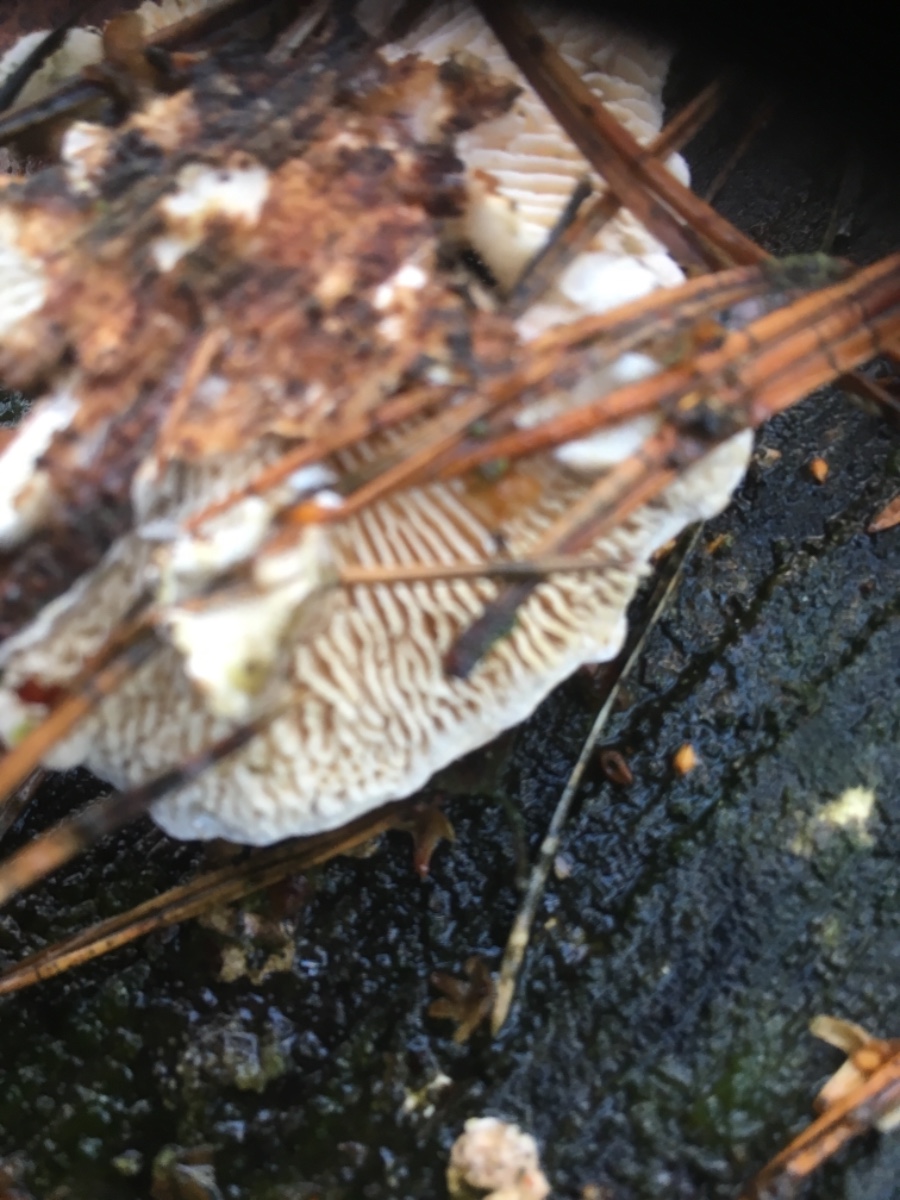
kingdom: Fungi
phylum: Basidiomycota
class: Agaricomycetes
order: Polyporales
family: Polyporaceae
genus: Lenzites
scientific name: Lenzites betulinus
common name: birke-læderporesvamp
